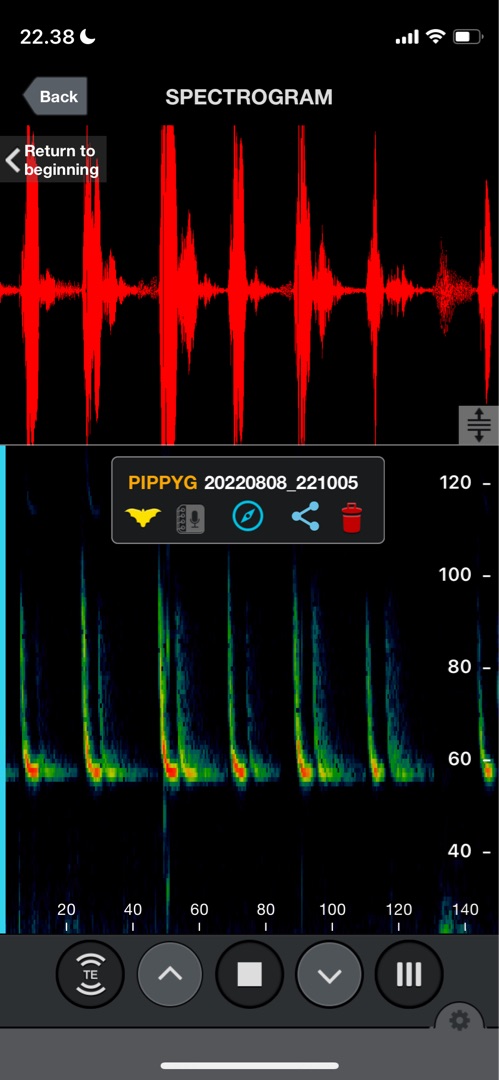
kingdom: Animalia
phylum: Chordata
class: Mammalia
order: Chiroptera
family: Vespertilionidae
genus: Pipistrellus
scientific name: Pipistrellus pygmaeus
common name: Dværgflagermus
